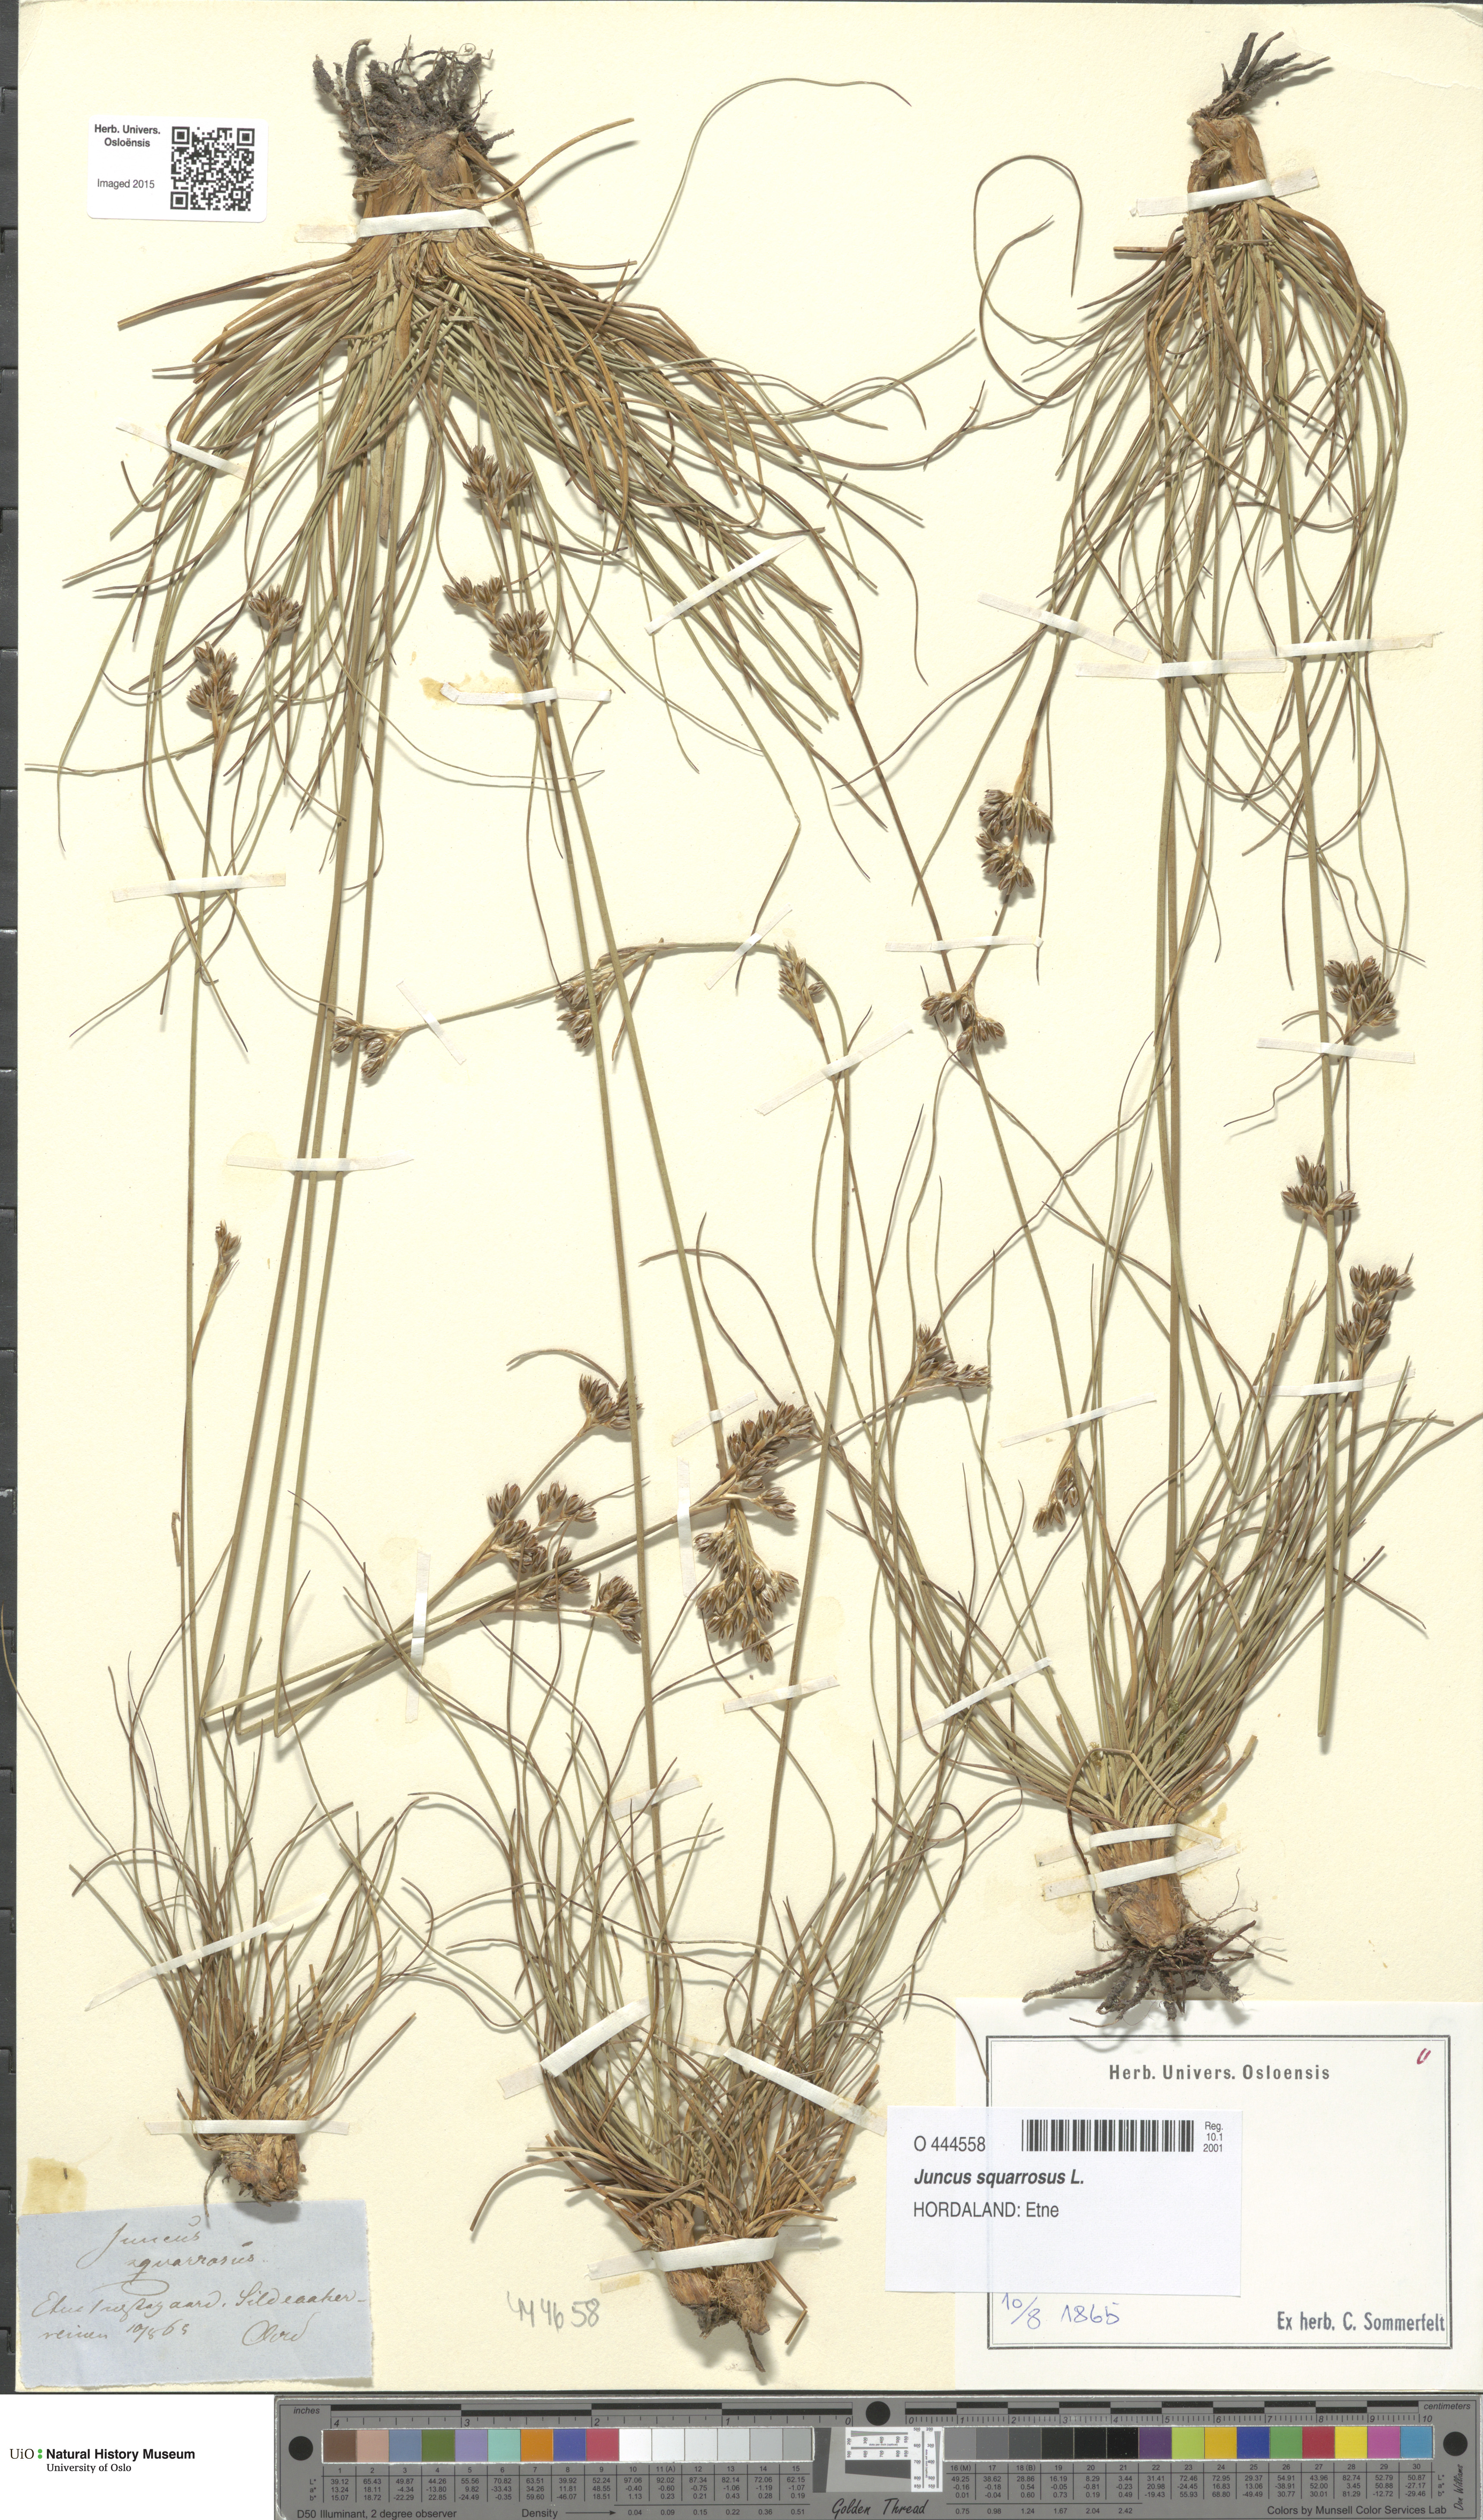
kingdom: Plantae
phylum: Tracheophyta
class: Liliopsida
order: Poales
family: Juncaceae
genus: Juncus
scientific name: Juncus squarrosus
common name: Heath rush
